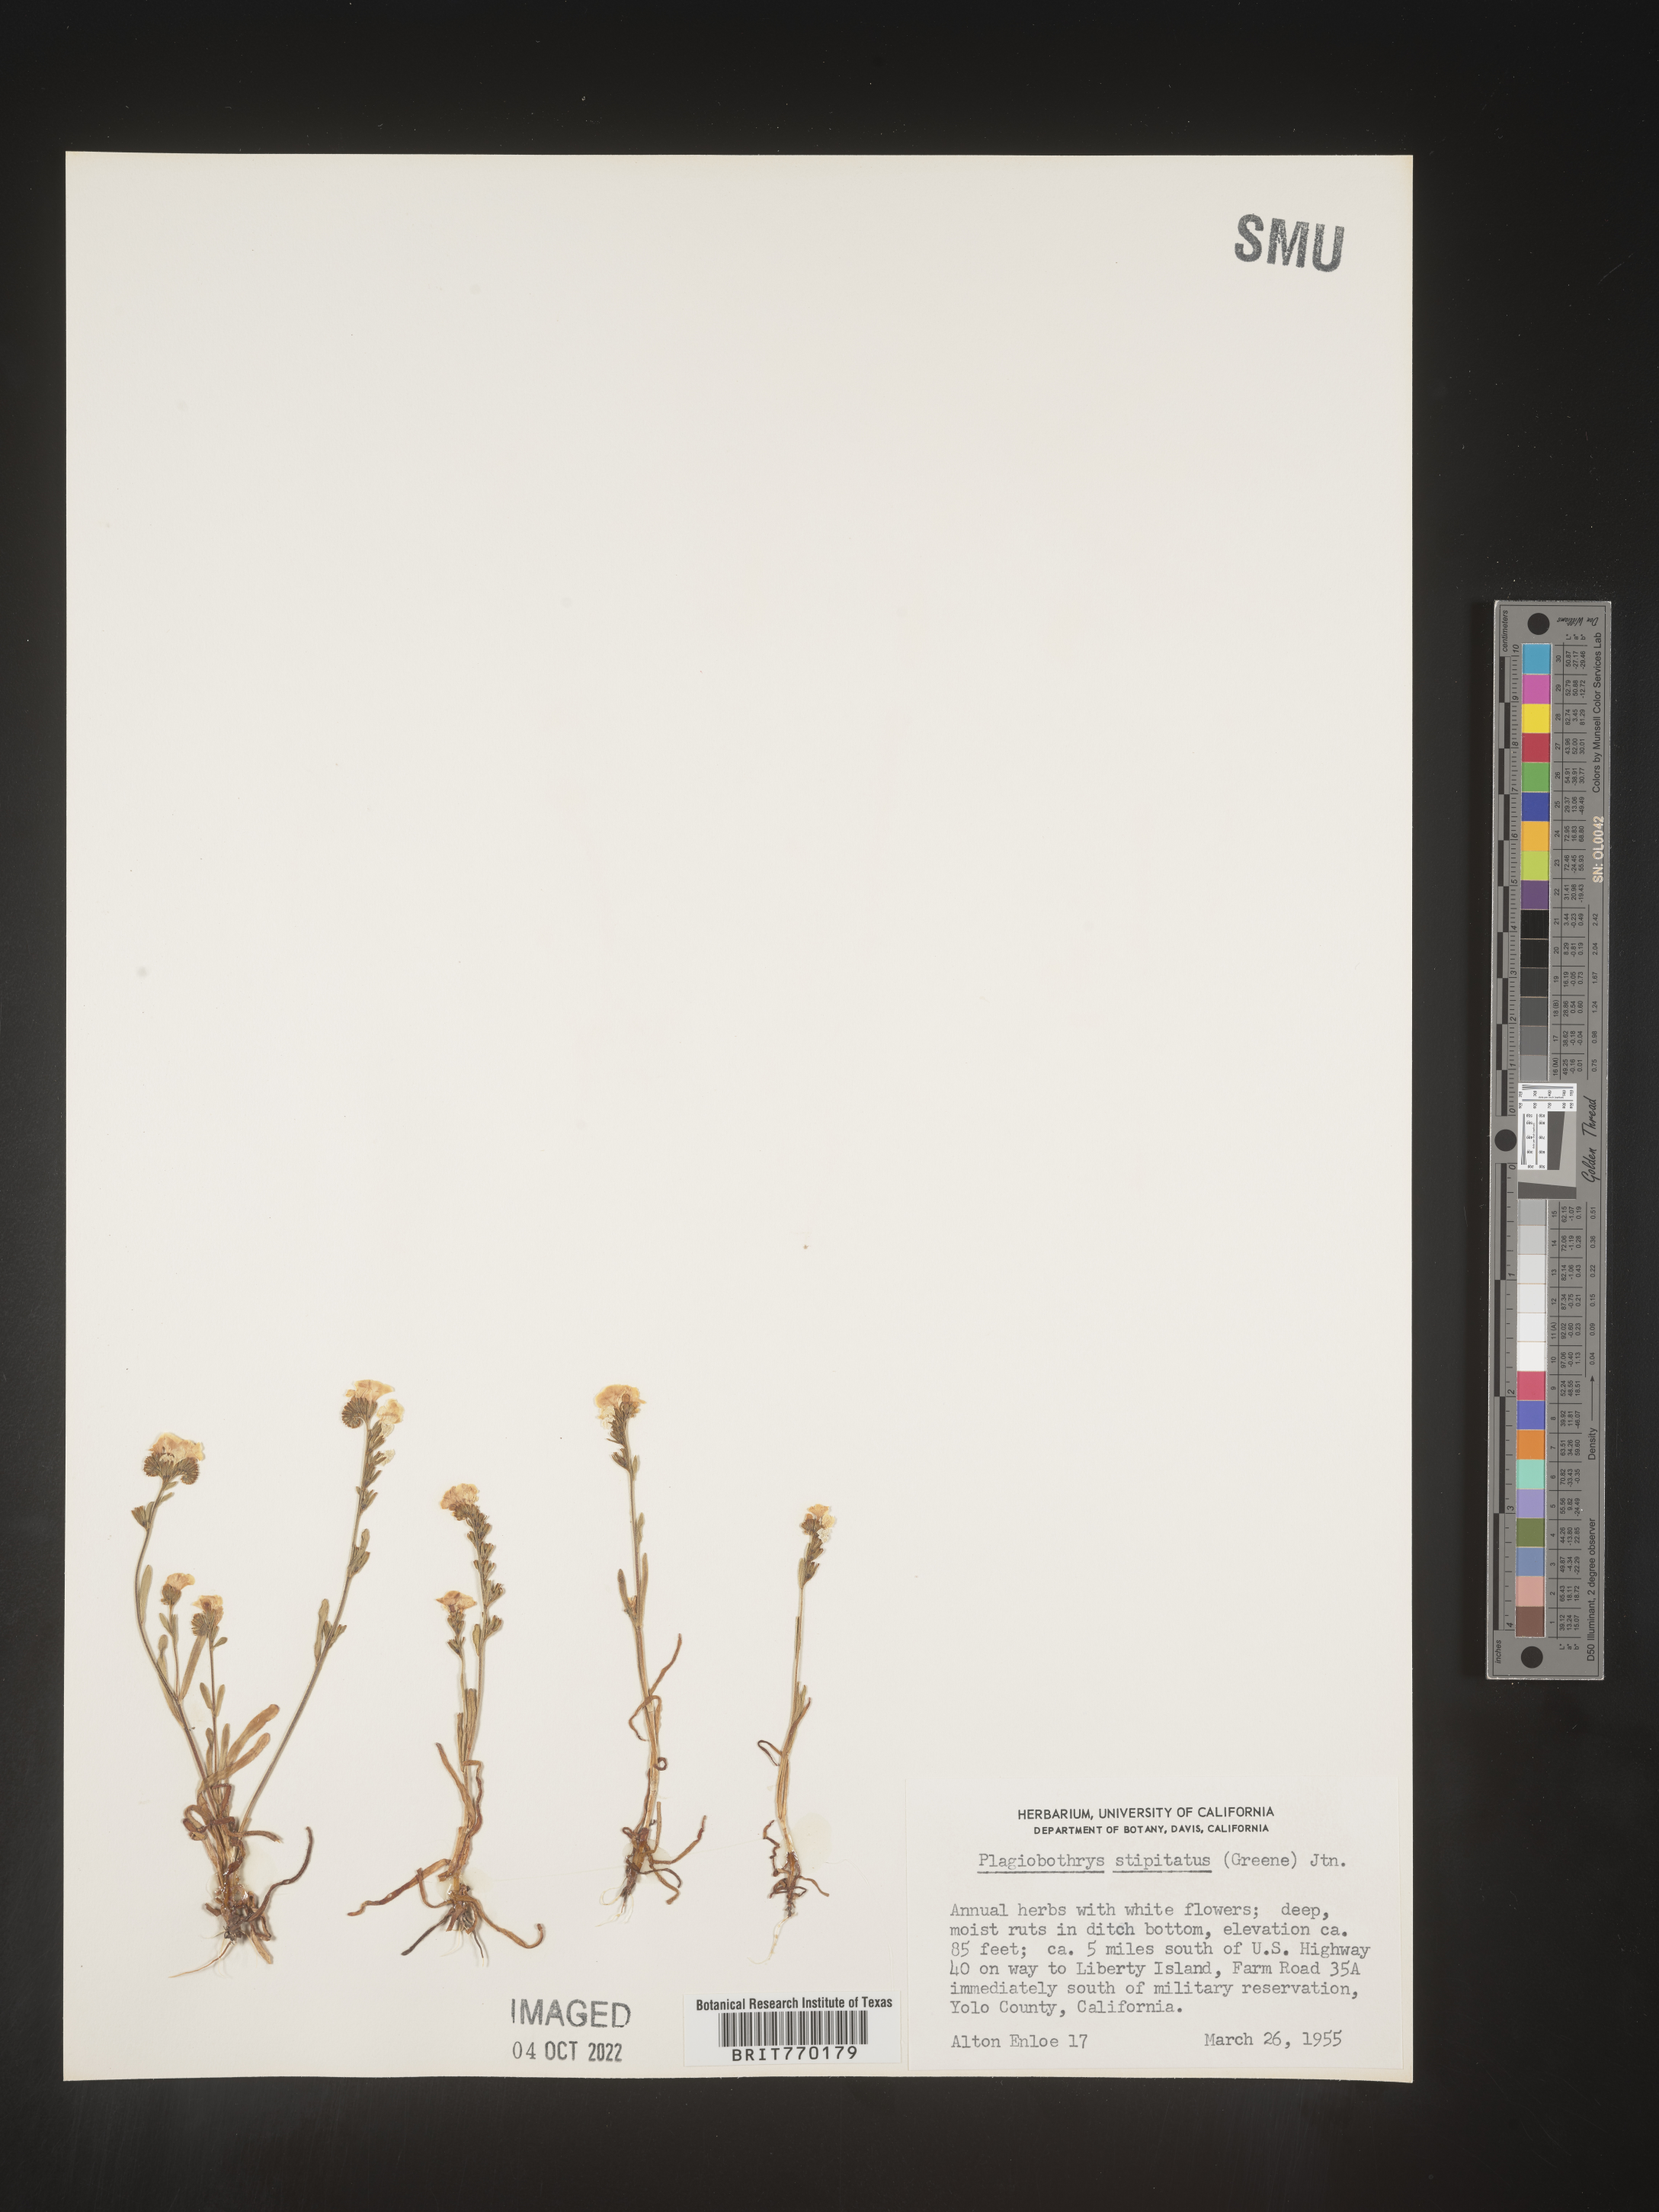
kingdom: Plantae
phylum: Tracheophyta
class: Magnoliopsida
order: Boraginales
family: Boraginaceae
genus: Plagiobothrys
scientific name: Plagiobothrys
